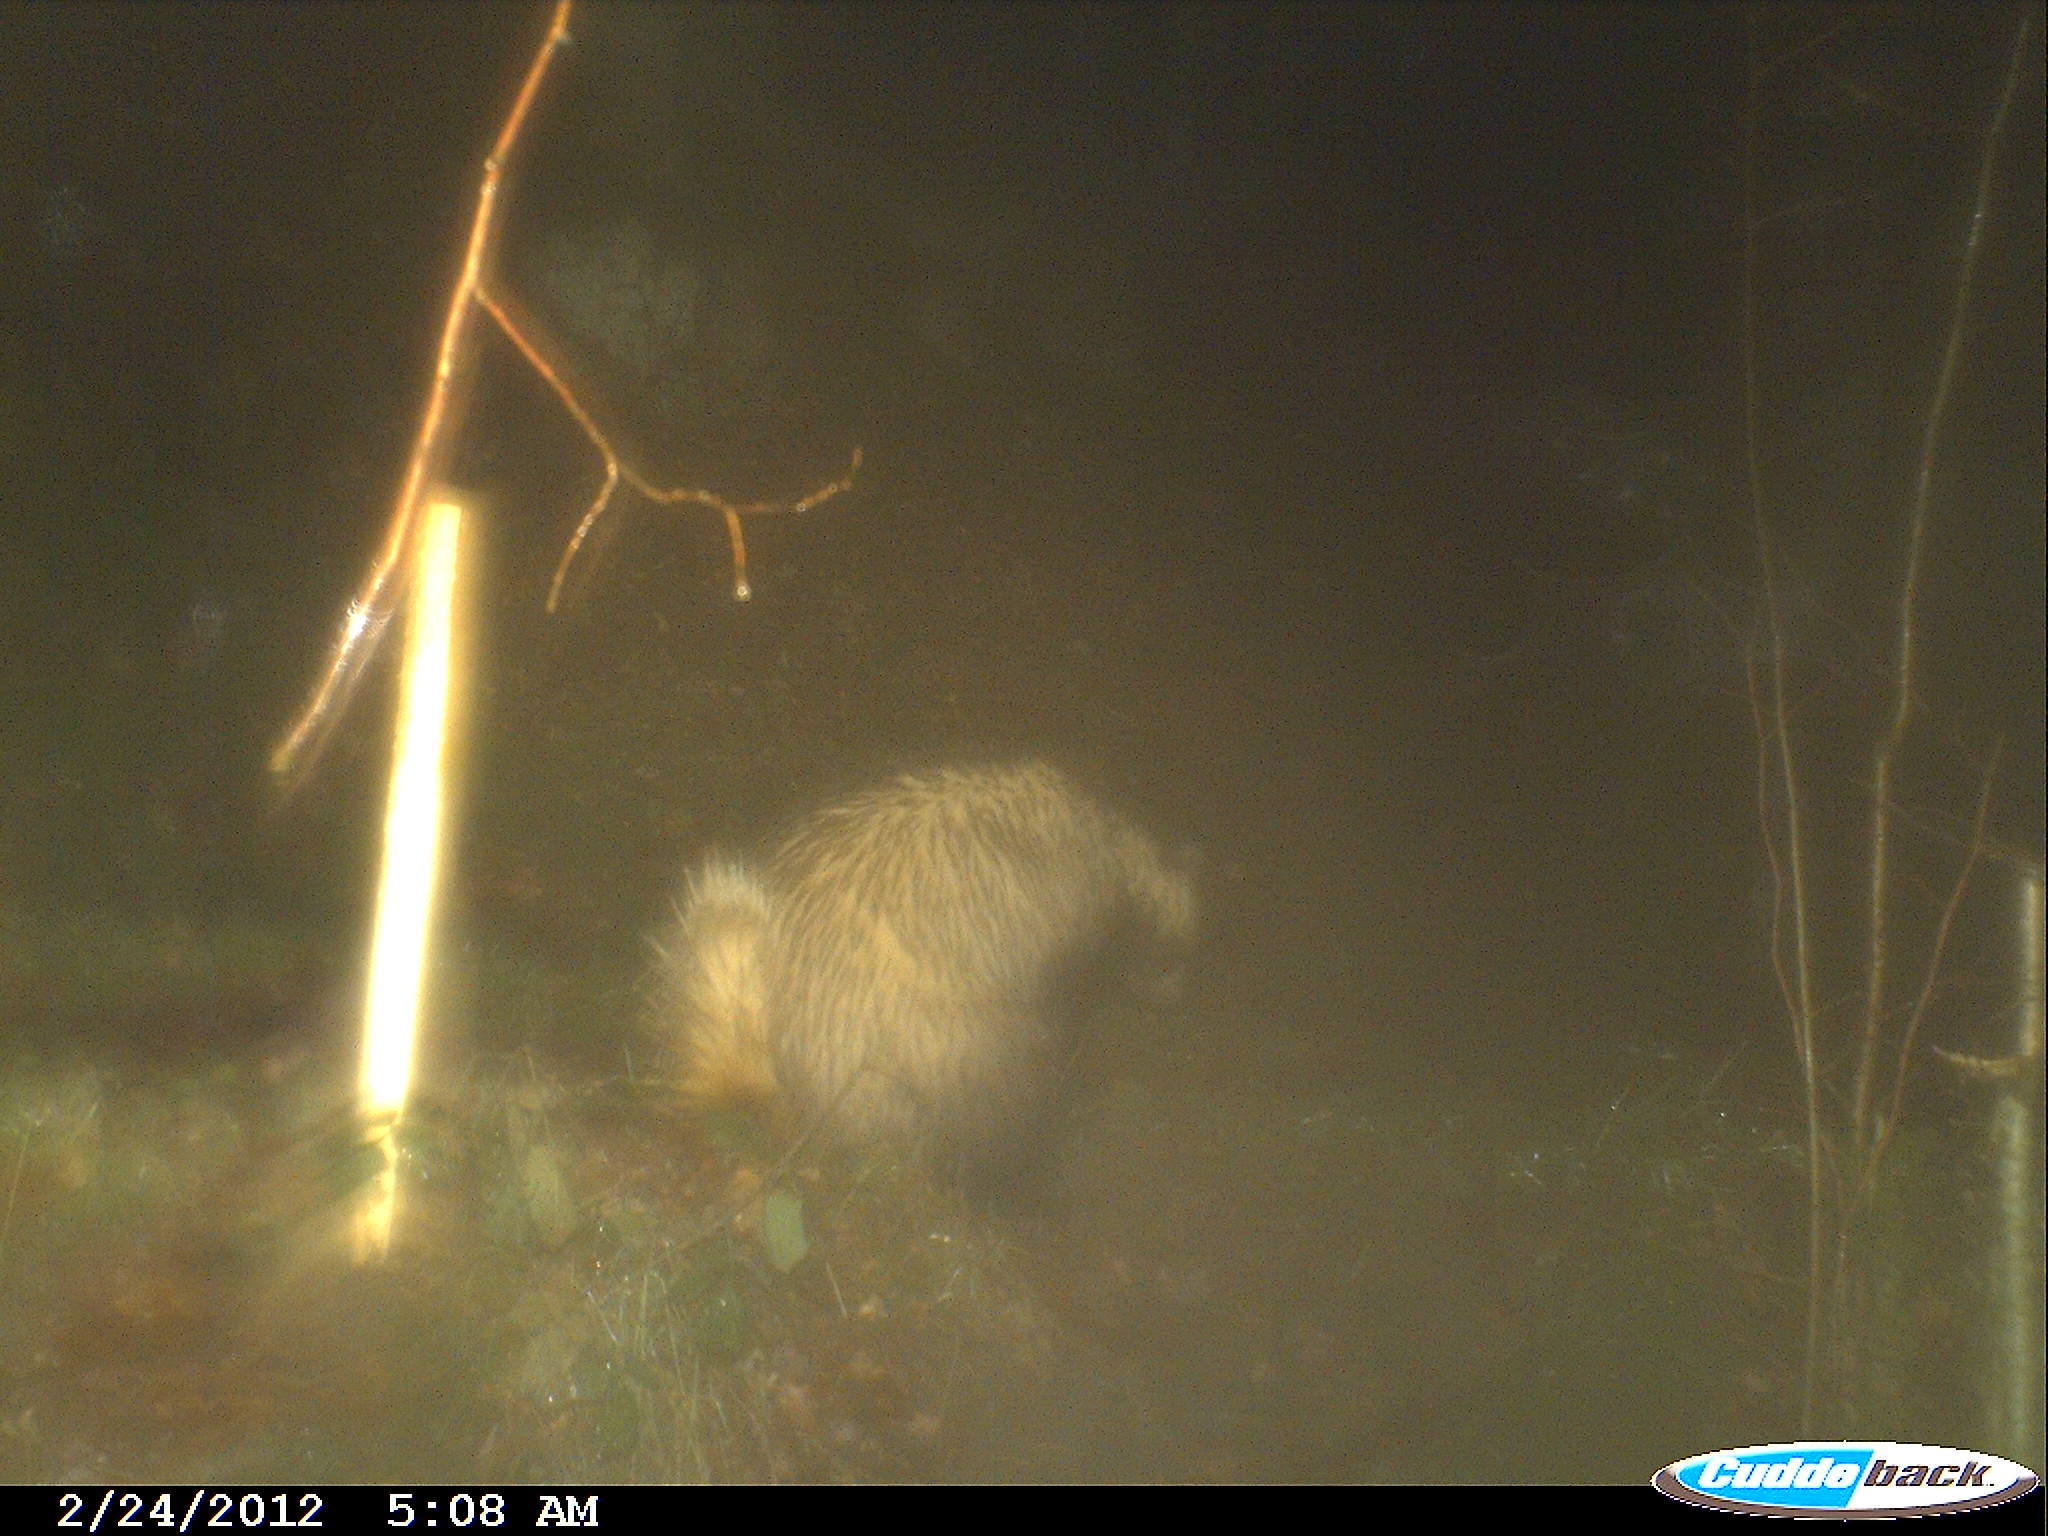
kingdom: Animalia
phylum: Chordata
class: Mammalia
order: Carnivora
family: Mustelidae
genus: Meles
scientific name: Meles meles
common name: Eurasian badger
